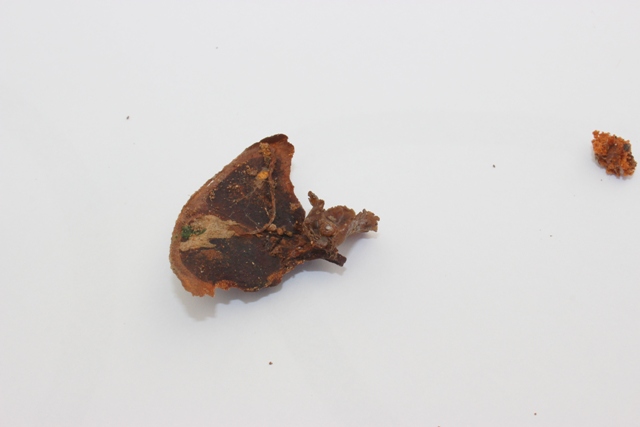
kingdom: Fungi
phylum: Ascomycota
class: Leotiomycetes
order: Helotiales
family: Sclerotiniaceae
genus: Ciboria
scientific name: Ciboria rufofusca
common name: kogleskæl-knoldskive
